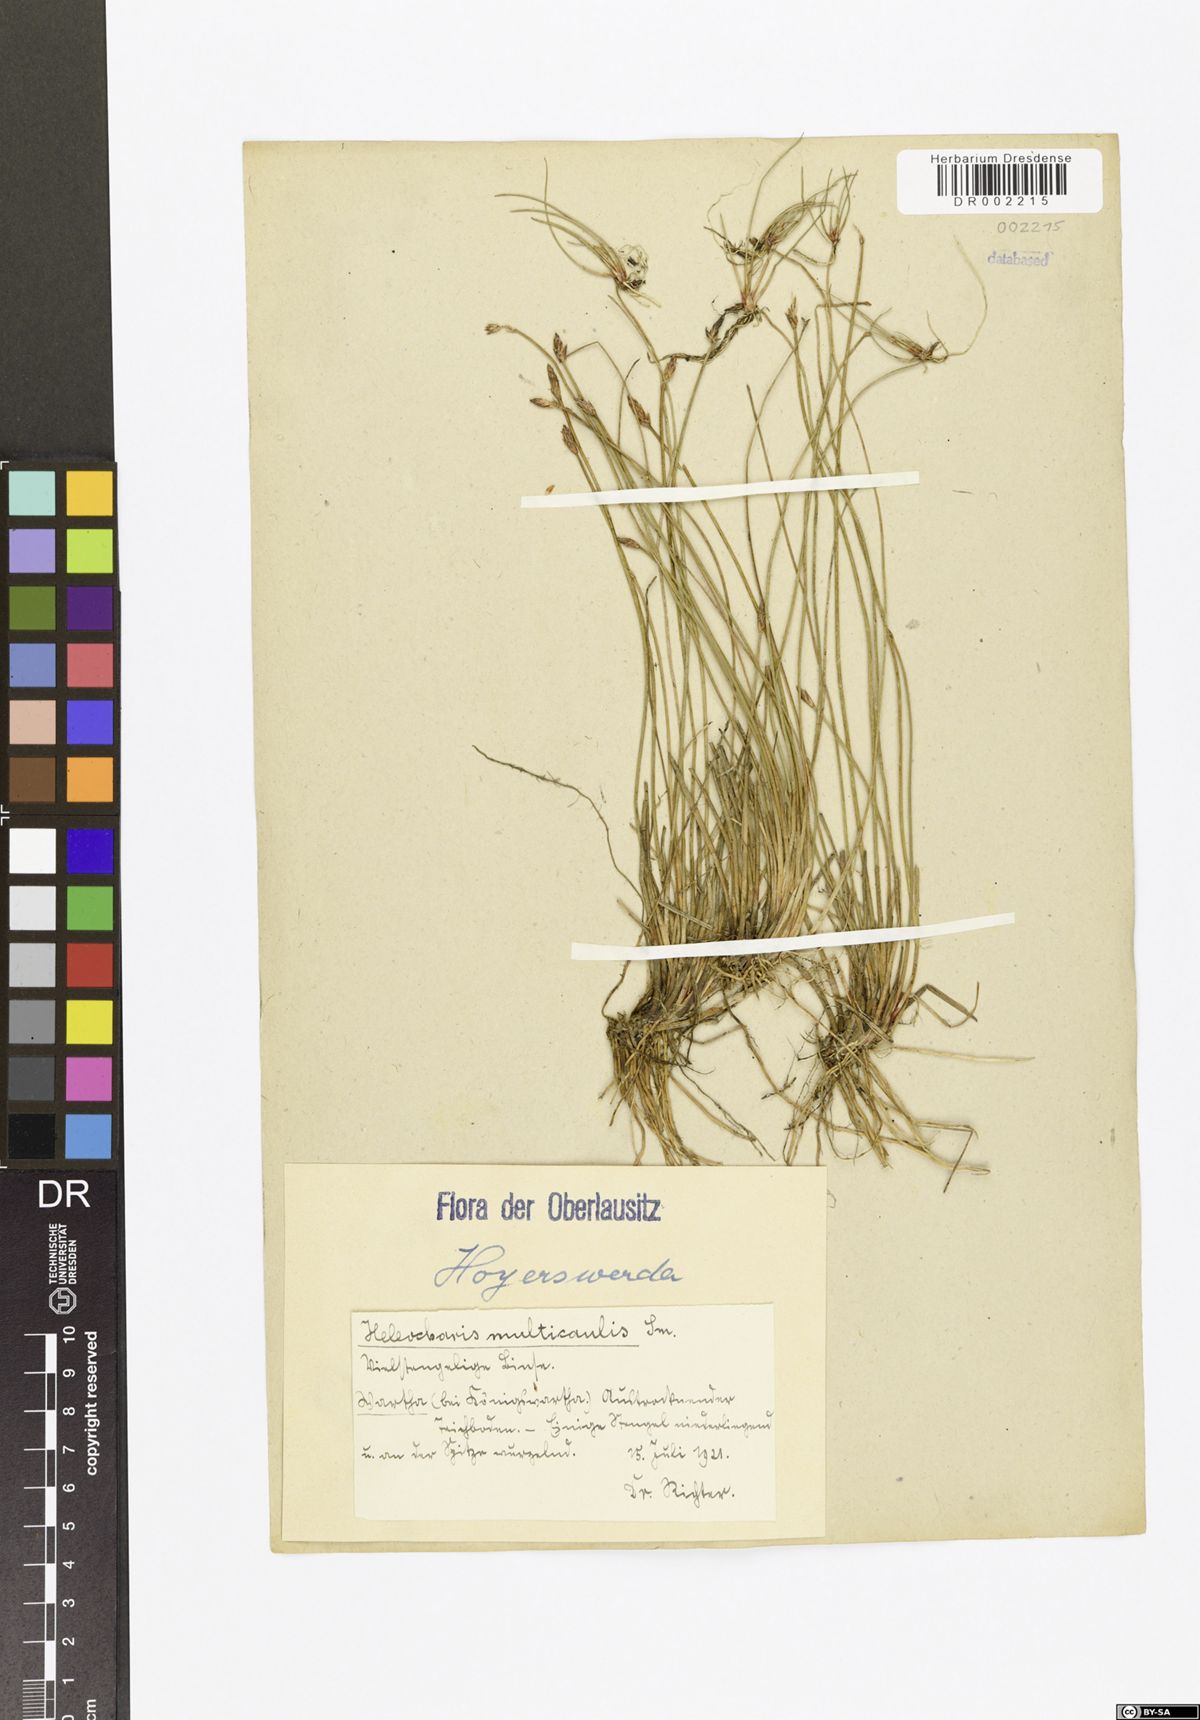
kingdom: Plantae
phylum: Tracheophyta
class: Liliopsida
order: Poales
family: Cyperaceae
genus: Eleocharis
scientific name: Eleocharis multicaulis
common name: Many-stalked spike-rush
